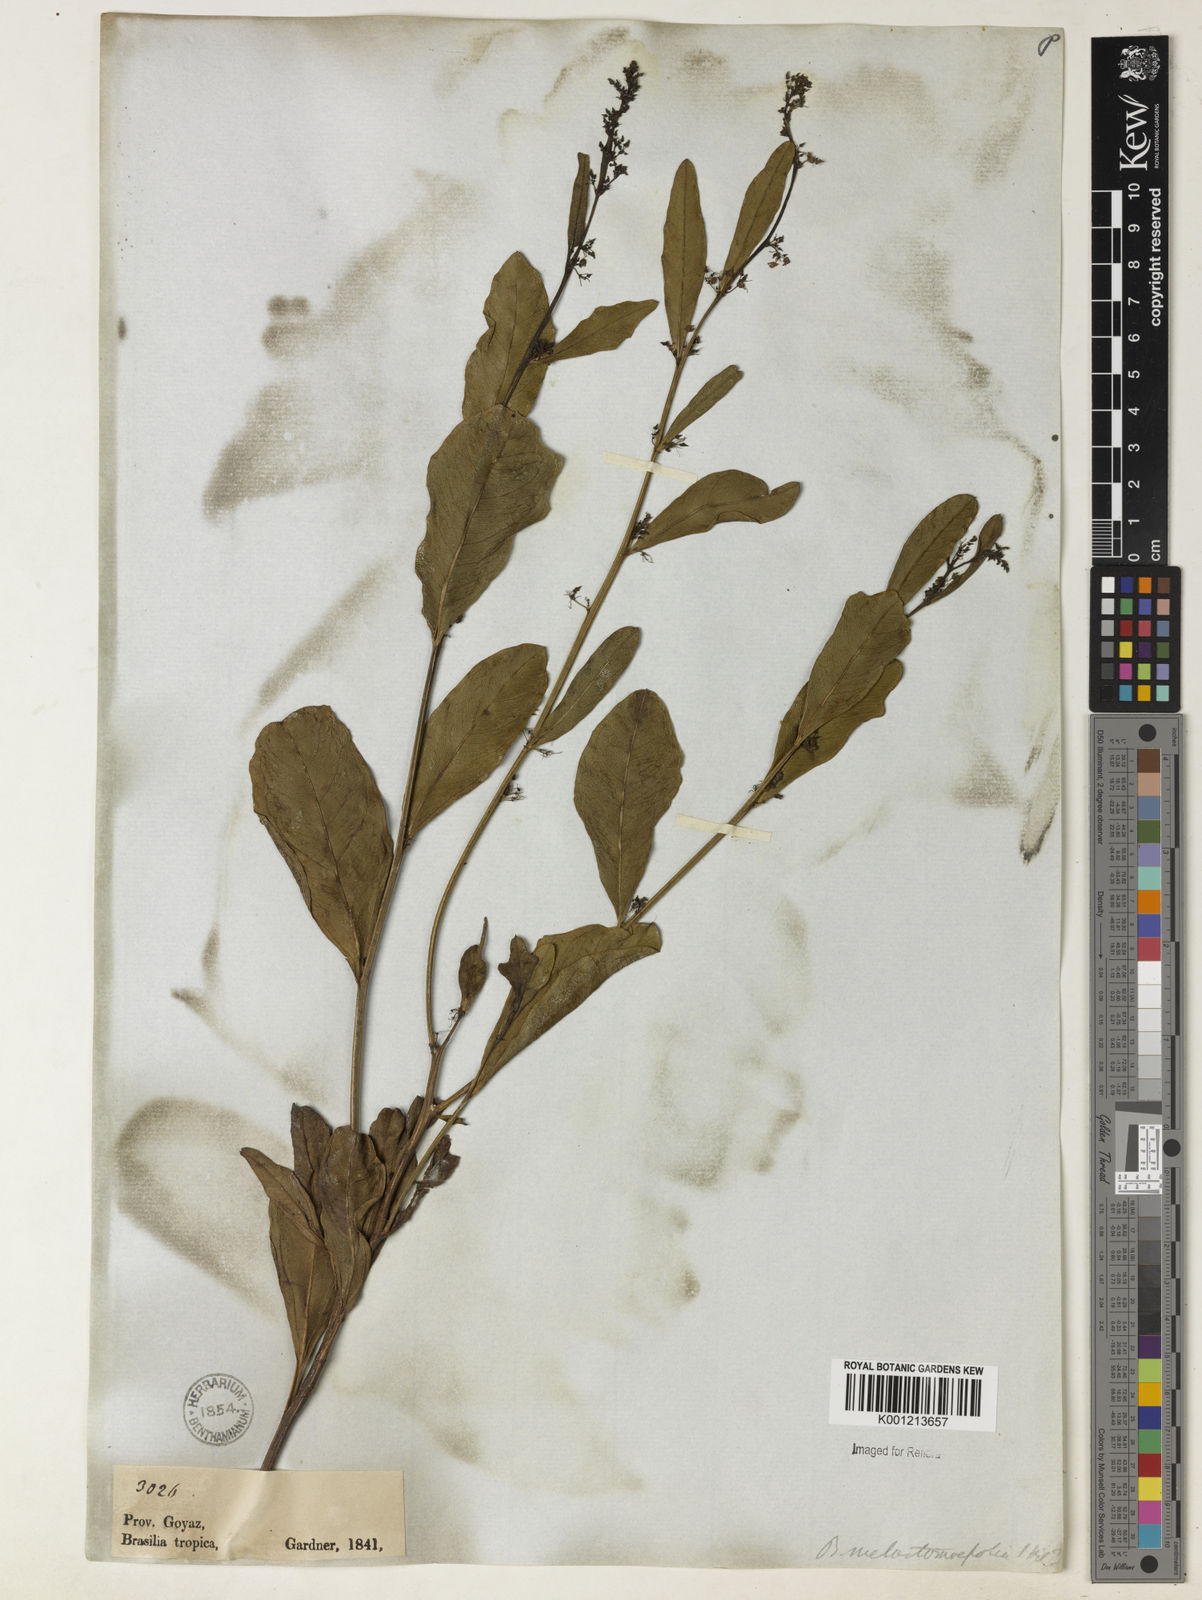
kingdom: Plantae
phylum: Tracheophyta
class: Magnoliopsida
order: Malvales
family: Malvaceae
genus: Byttneria
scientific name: Byttneria melastomifolia
